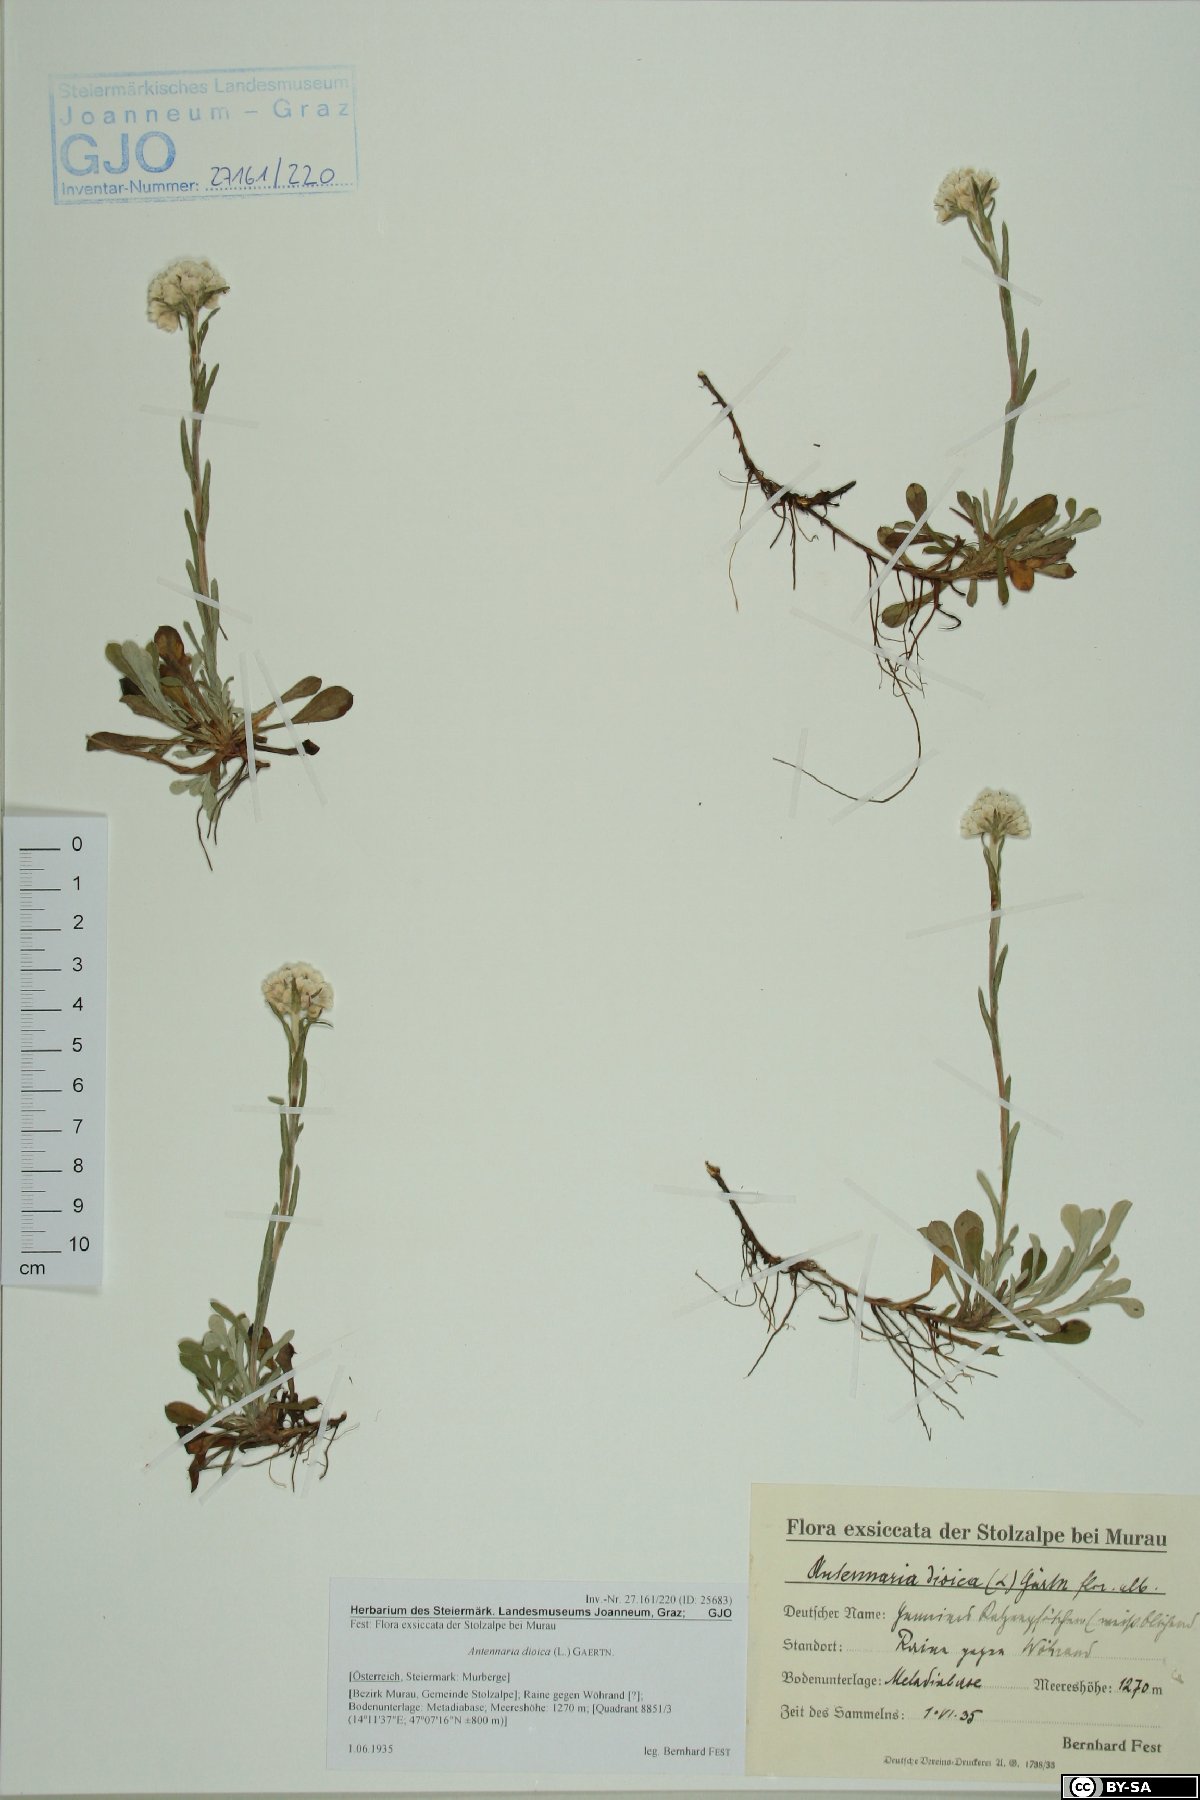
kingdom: Plantae
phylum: Tracheophyta
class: Magnoliopsida
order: Asterales
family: Asteraceae
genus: Antennaria
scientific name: Antennaria dioica
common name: Mountain everlasting
